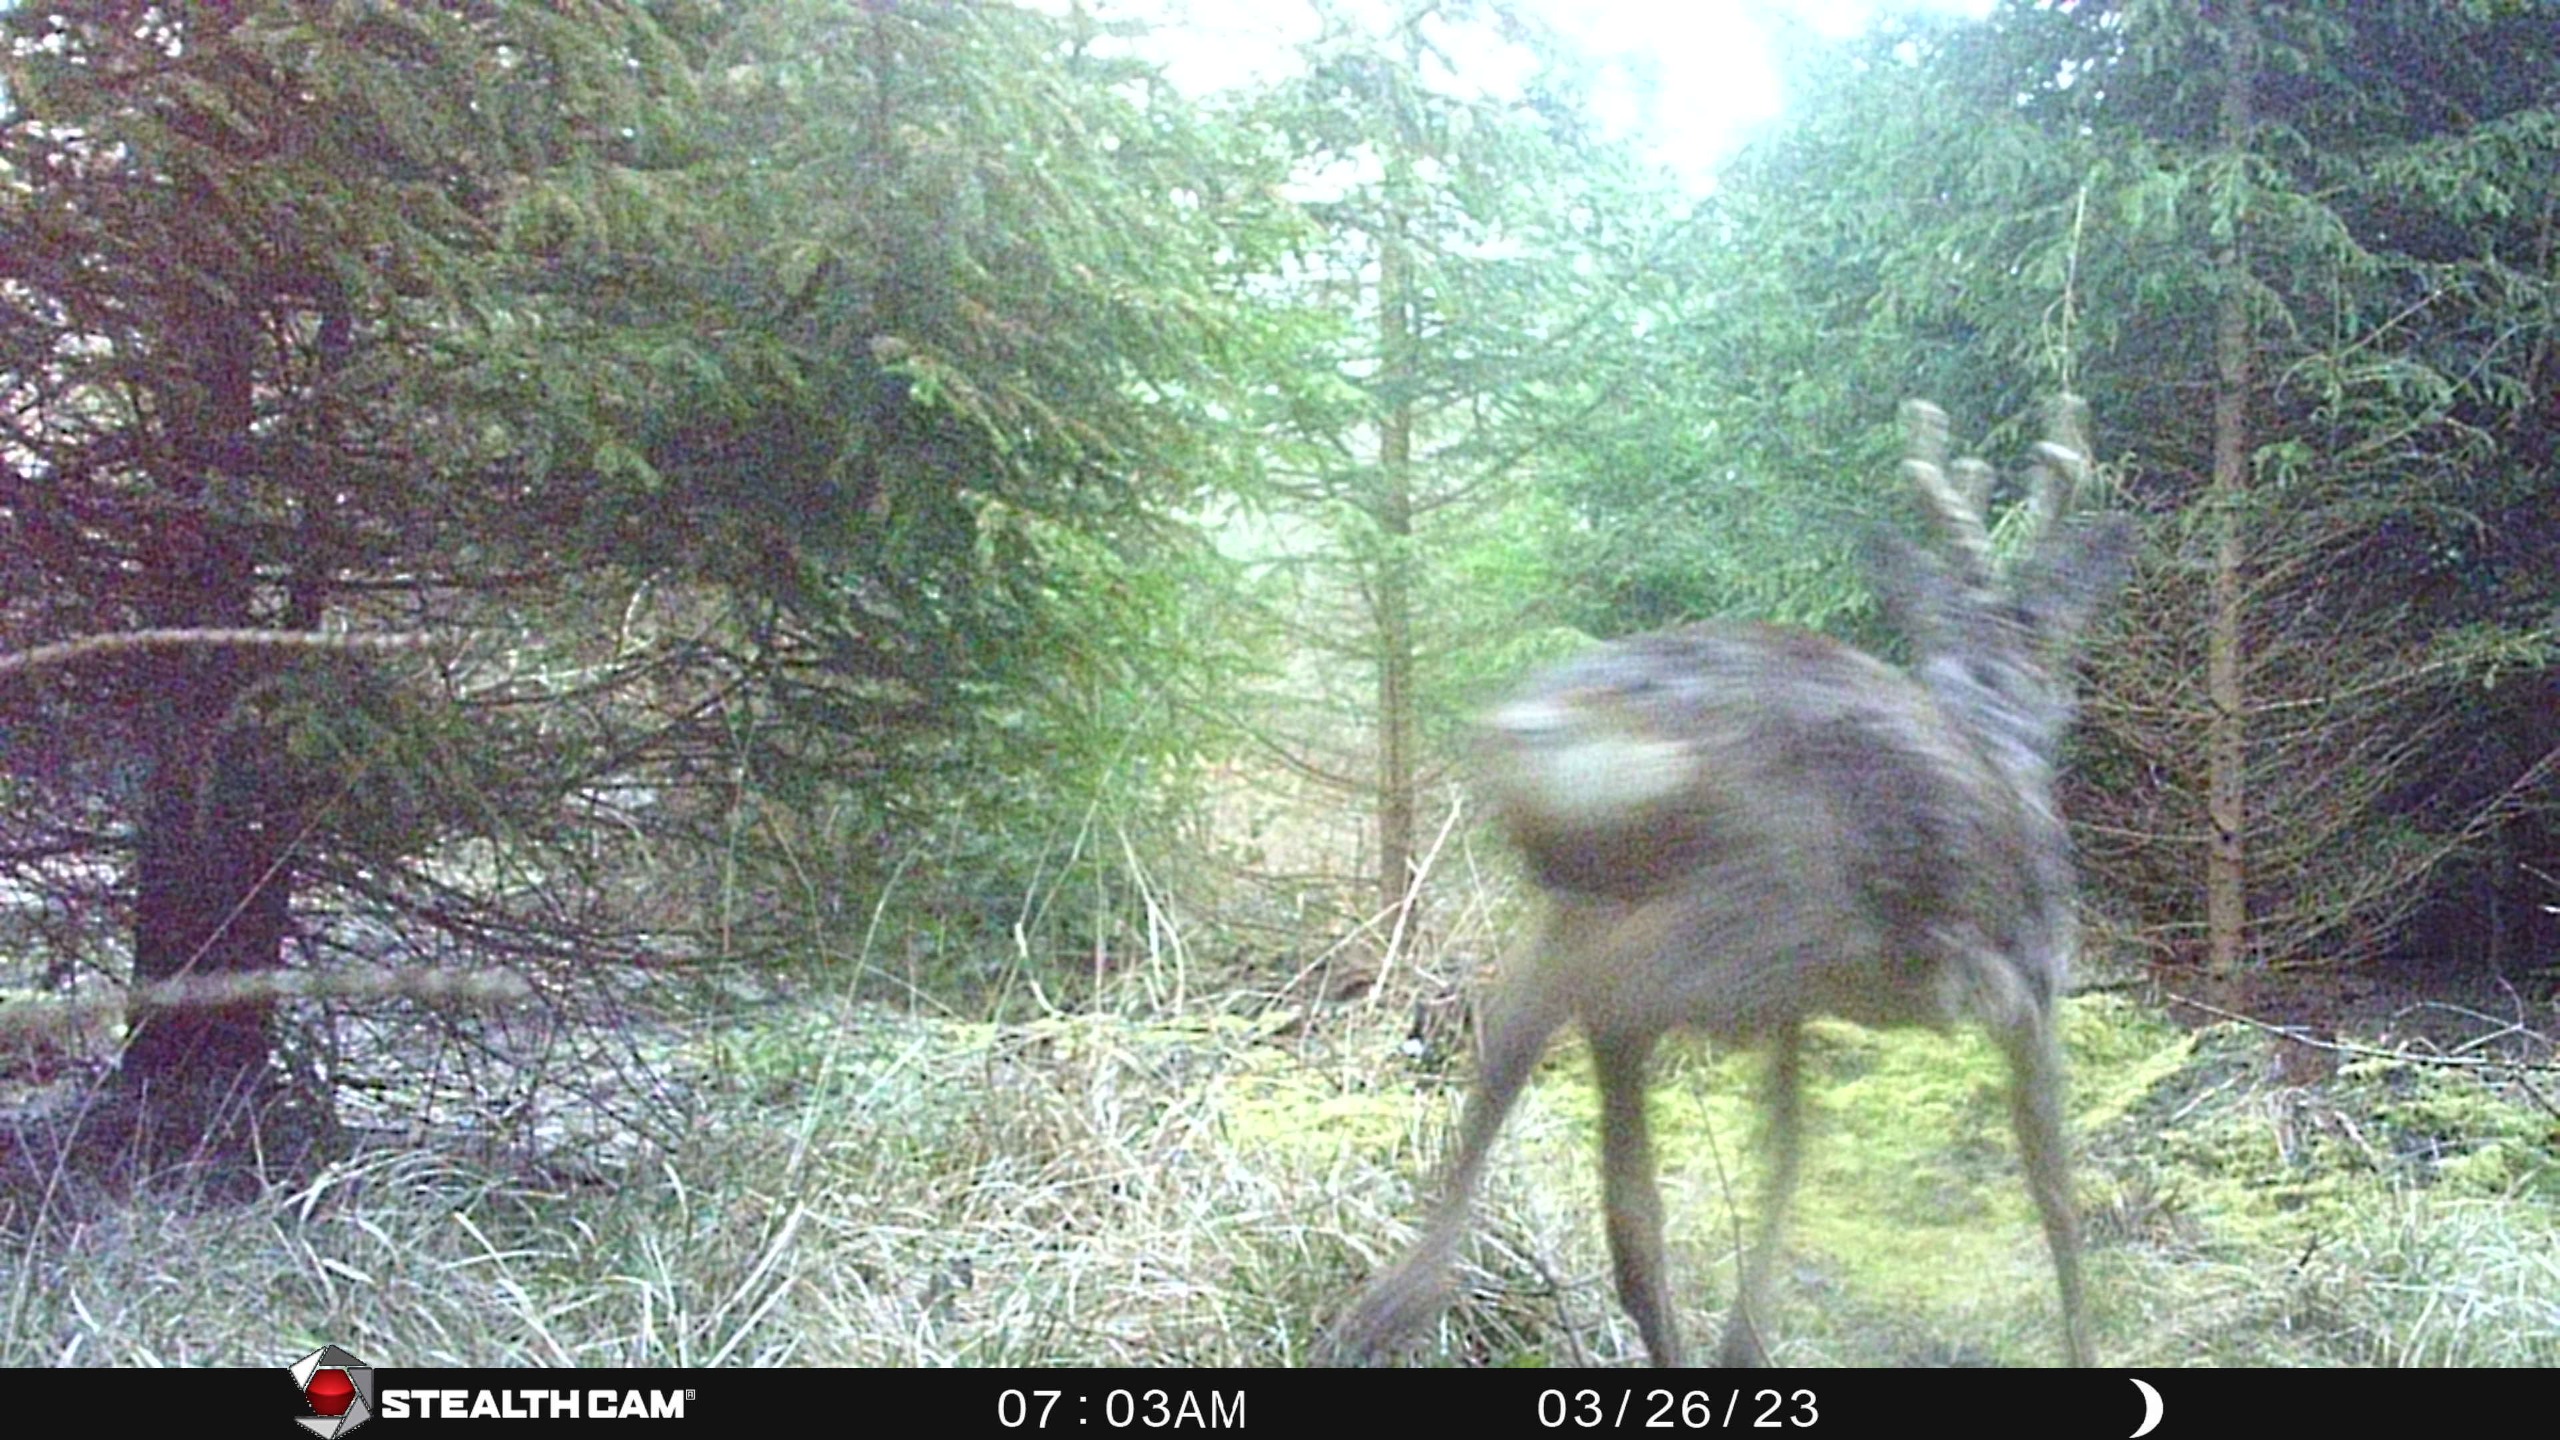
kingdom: Animalia
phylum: Chordata
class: Mammalia
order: Artiodactyla
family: Cervidae
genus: Capreolus
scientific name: Capreolus capreolus
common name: Rådyr
